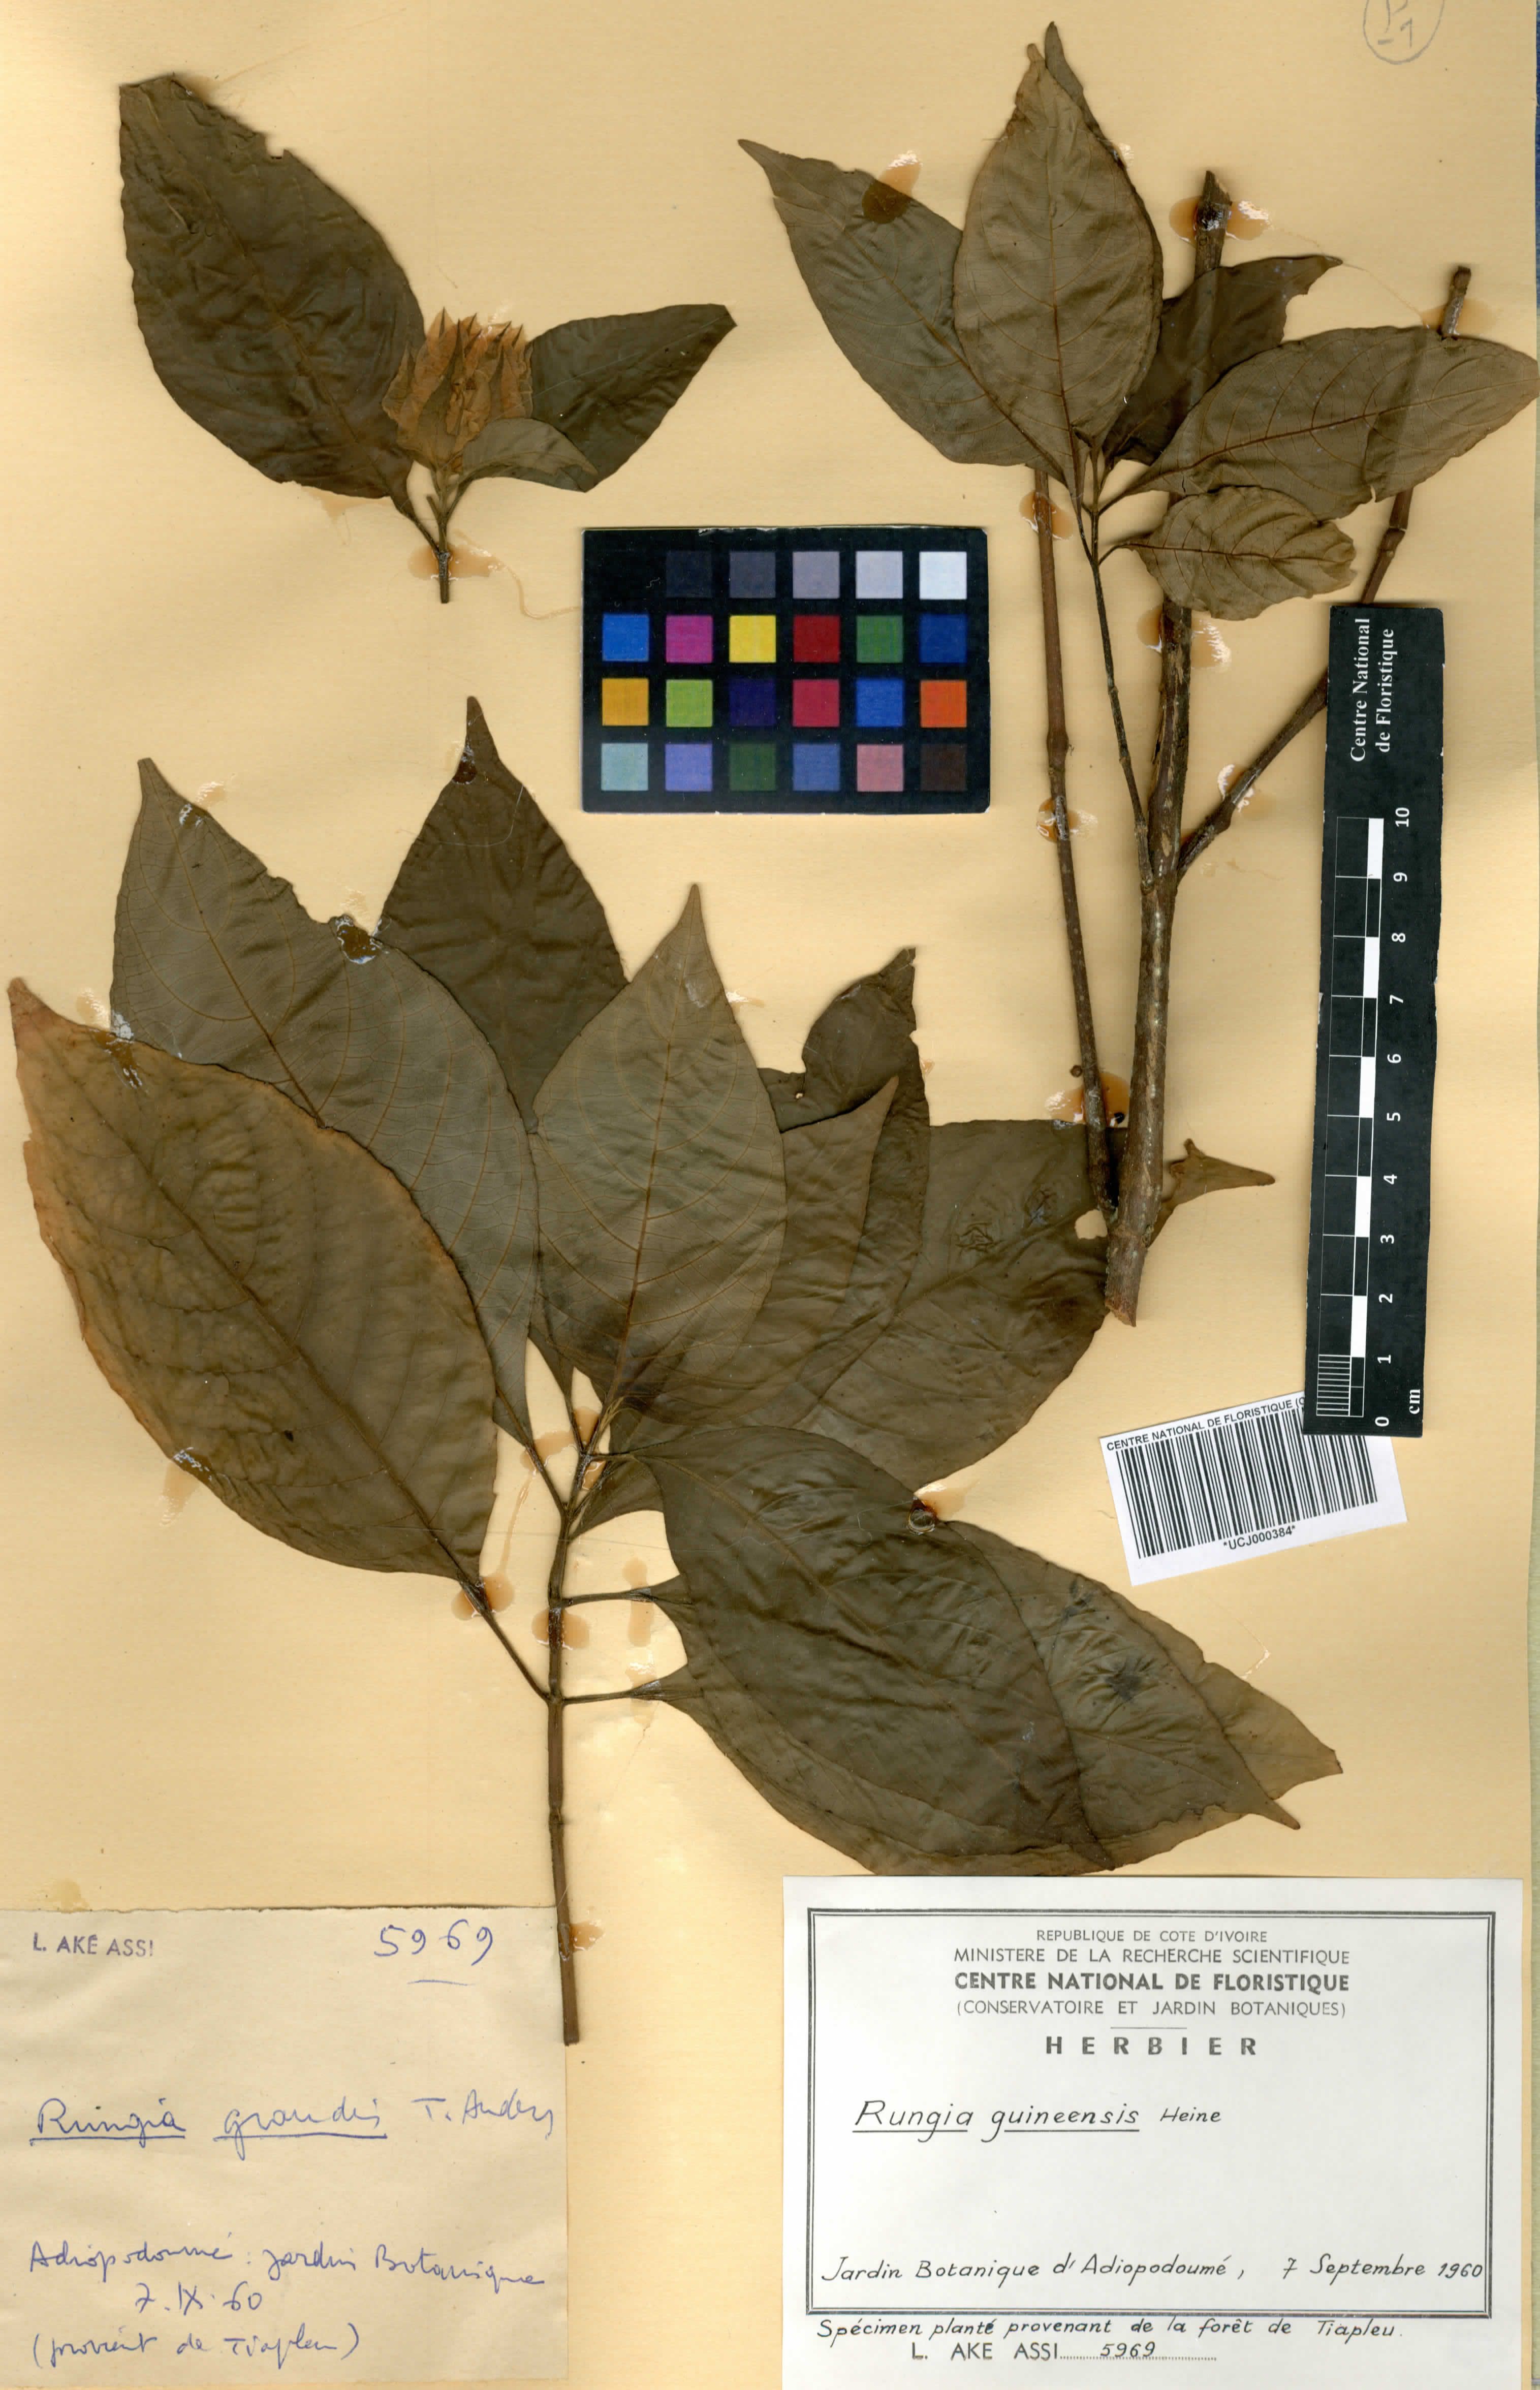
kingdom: Plantae
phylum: Tracheophyta
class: Magnoliopsida
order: Lamiales
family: Acanthaceae
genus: Justicia
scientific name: Justicia grandis
